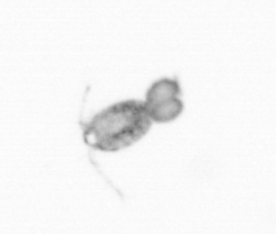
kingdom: Animalia
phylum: Arthropoda
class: Copepoda
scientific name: Copepoda
